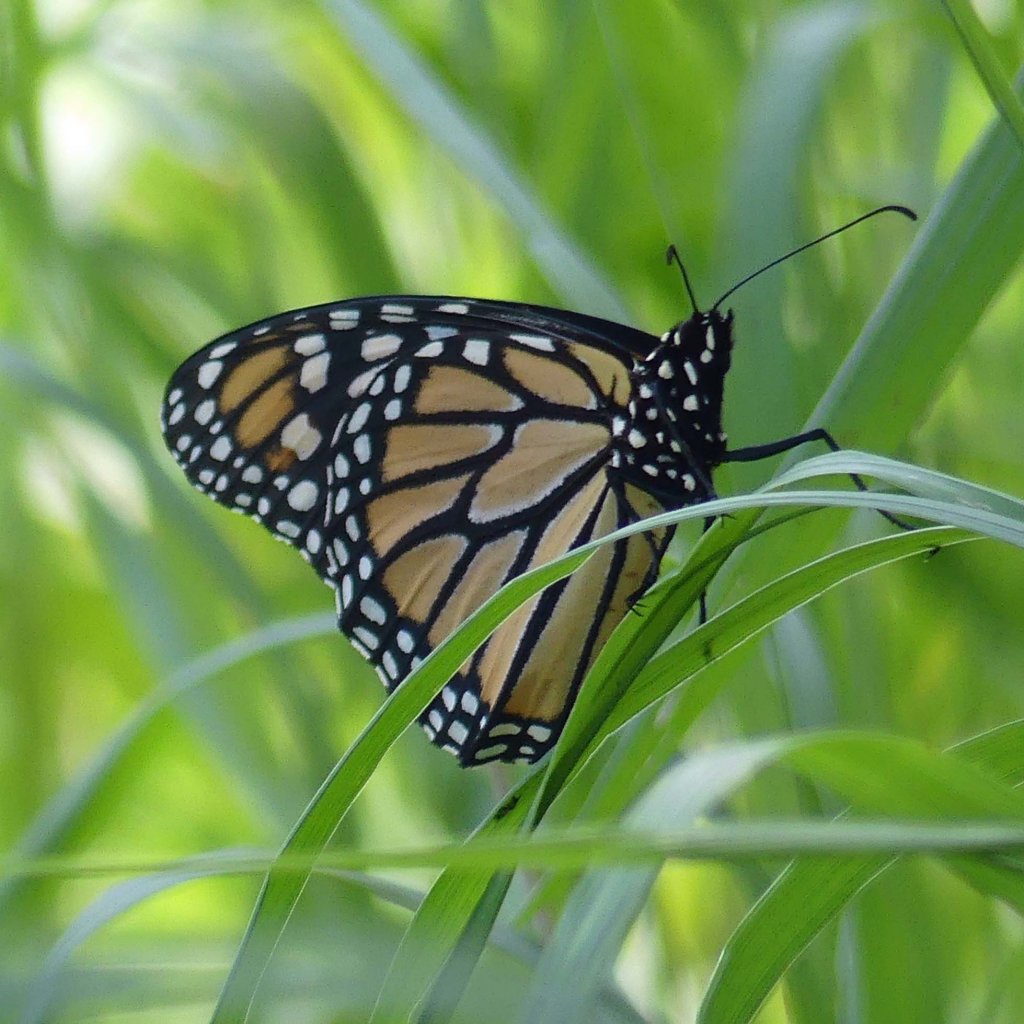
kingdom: Animalia
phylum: Arthropoda
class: Insecta
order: Lepidoptera
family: Nymphalidae
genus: Danaus
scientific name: Danaus plexippus
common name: Monarch
